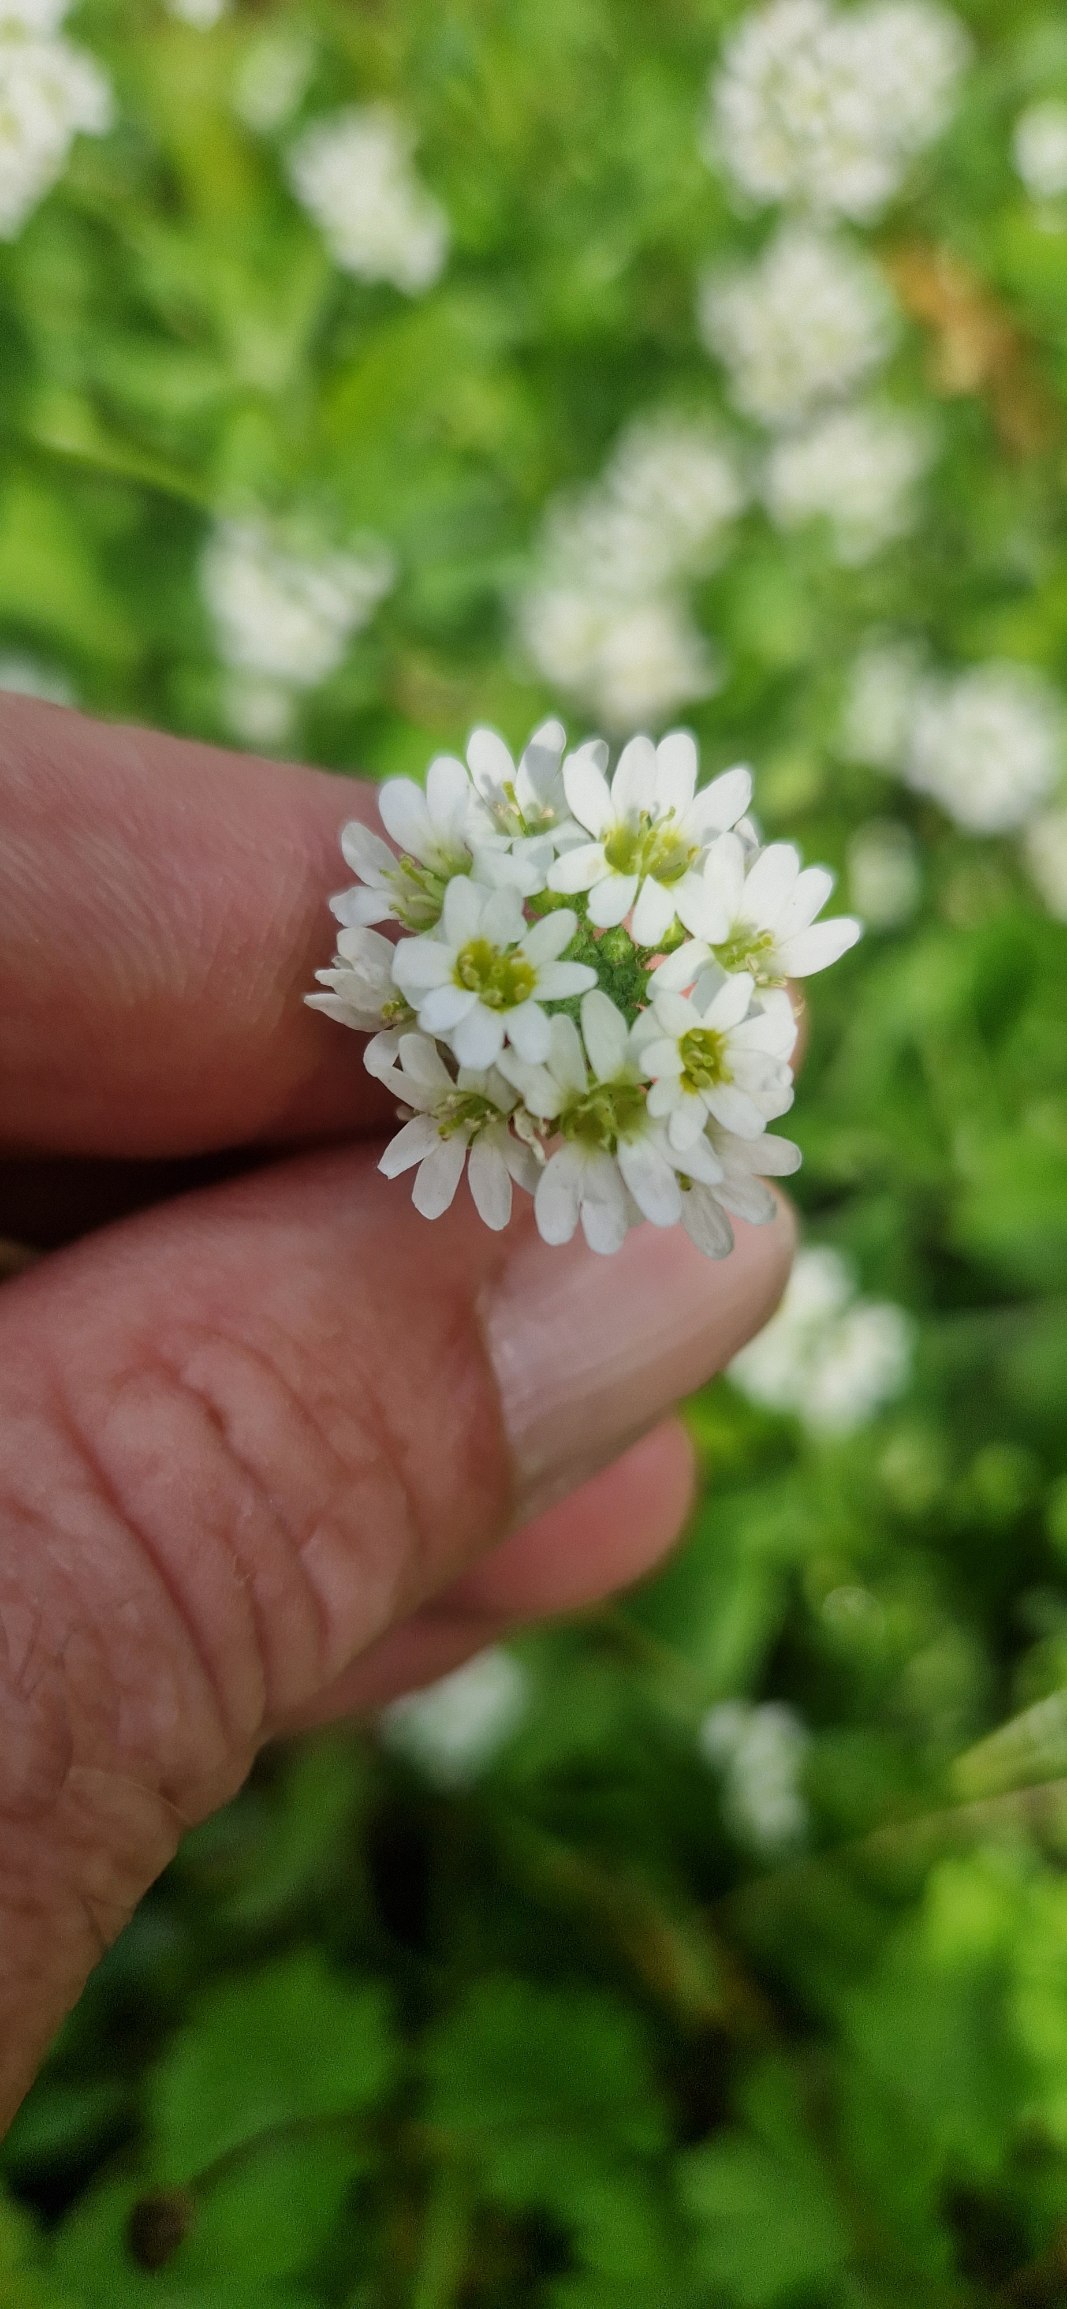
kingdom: Plantae
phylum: Tracheophyta
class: Magnoliopsida
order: Brassicales
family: Brassicaceae
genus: Berteroa
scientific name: Berteroa incana
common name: Kløvplade
